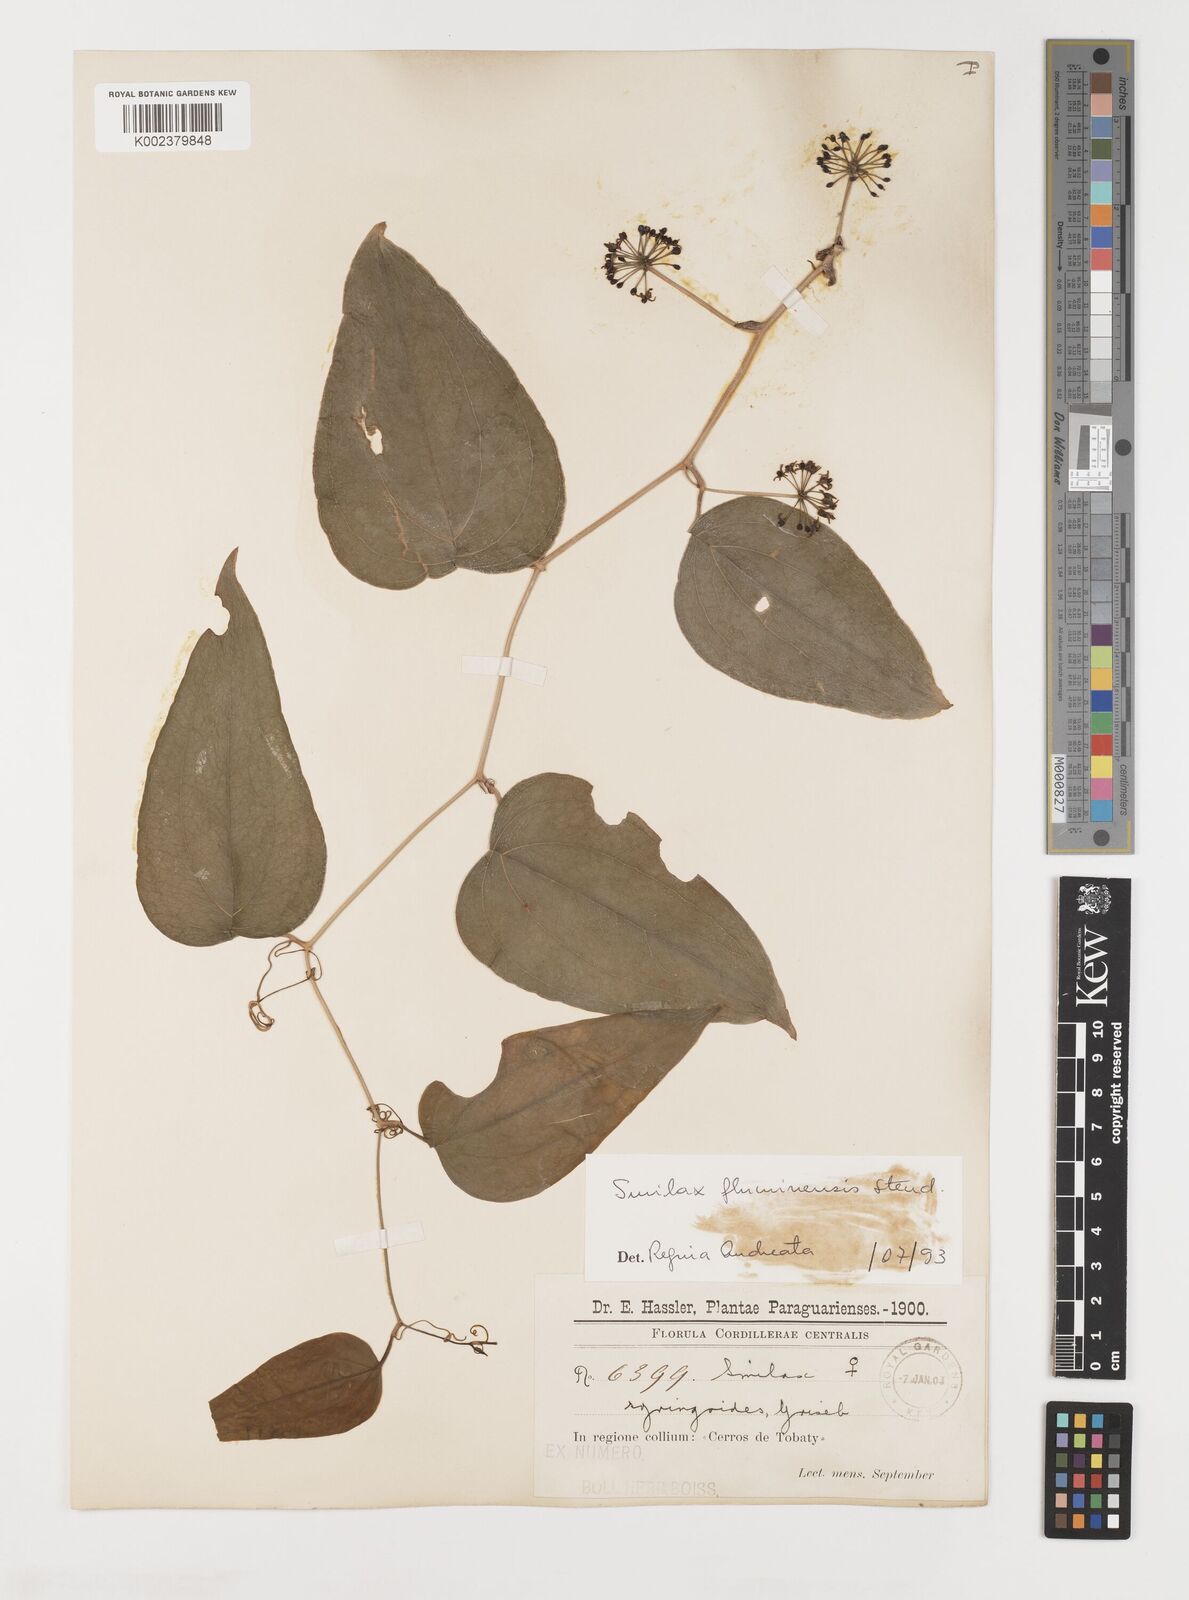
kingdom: Plantae
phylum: Tracheophyta
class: Liliopsida
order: Liliales
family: Smilacaceae
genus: Smilax
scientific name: Smilax fluminensis
